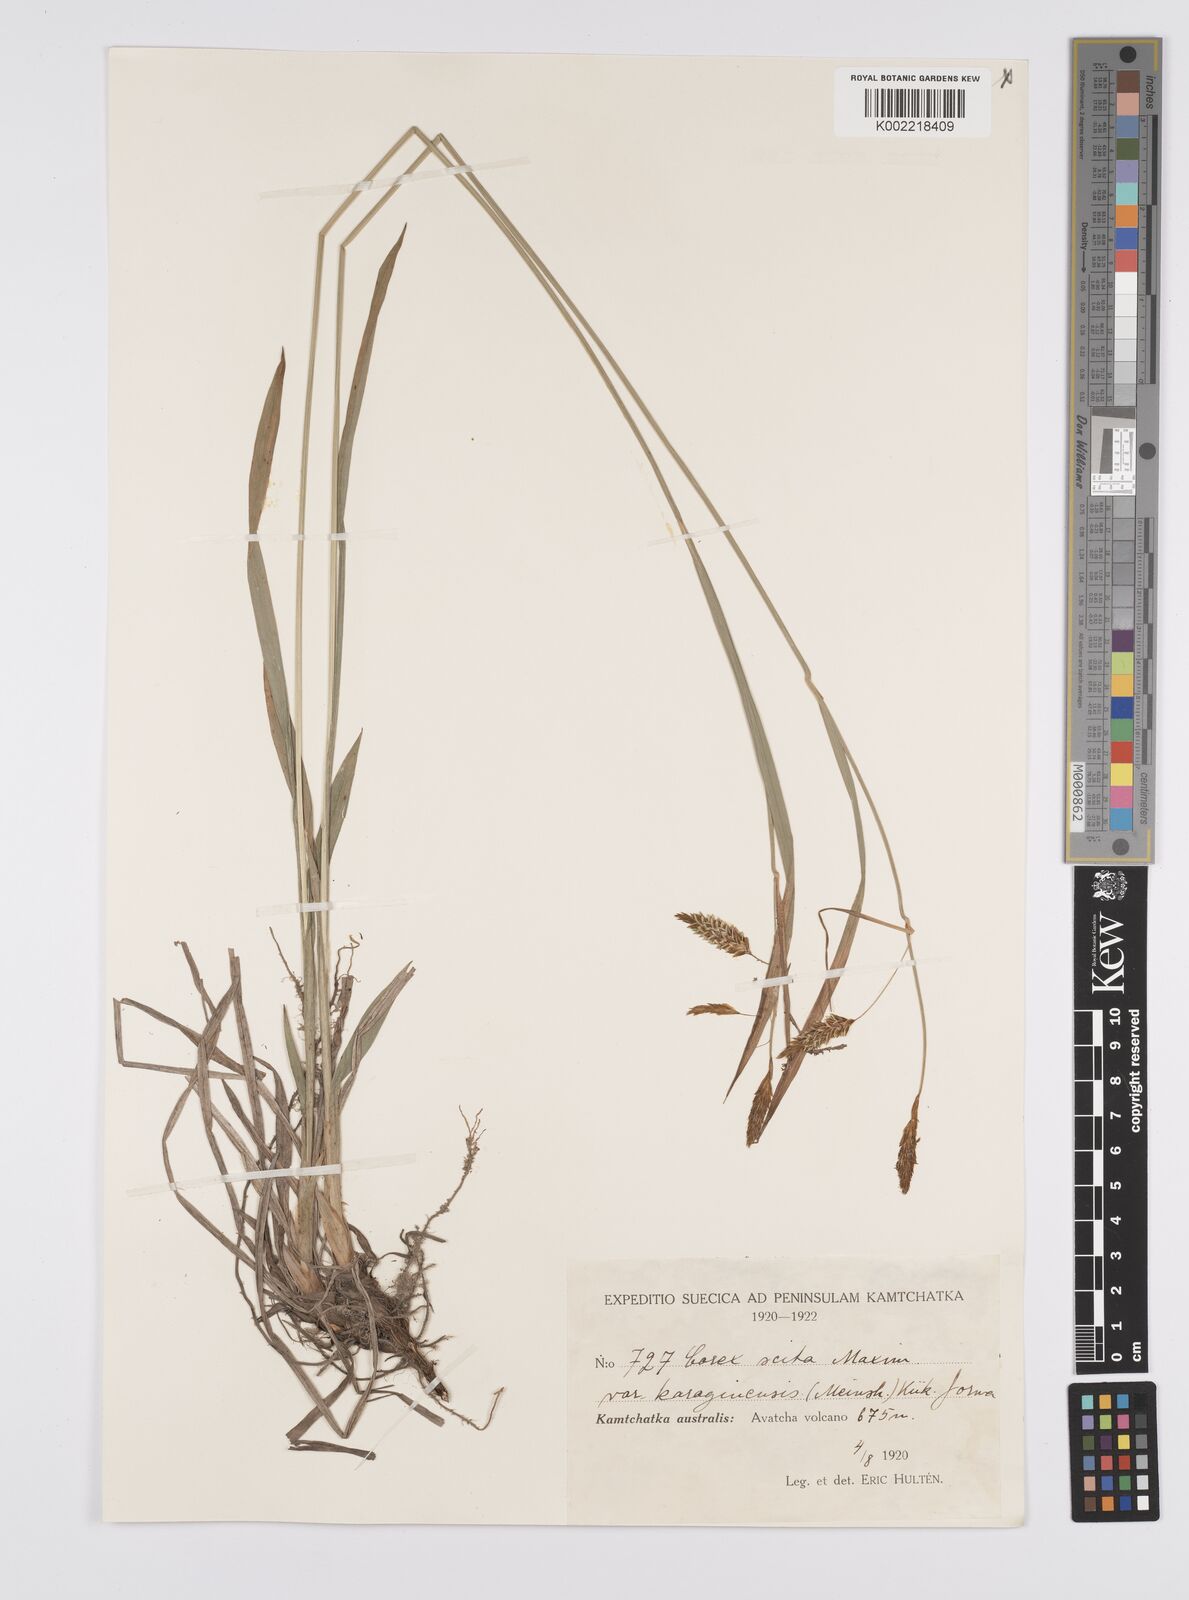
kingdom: Plantae
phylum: Tracheophyta
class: Liliopsida
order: Poales
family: Cyperaceae
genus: Carex
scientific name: Carex scita
